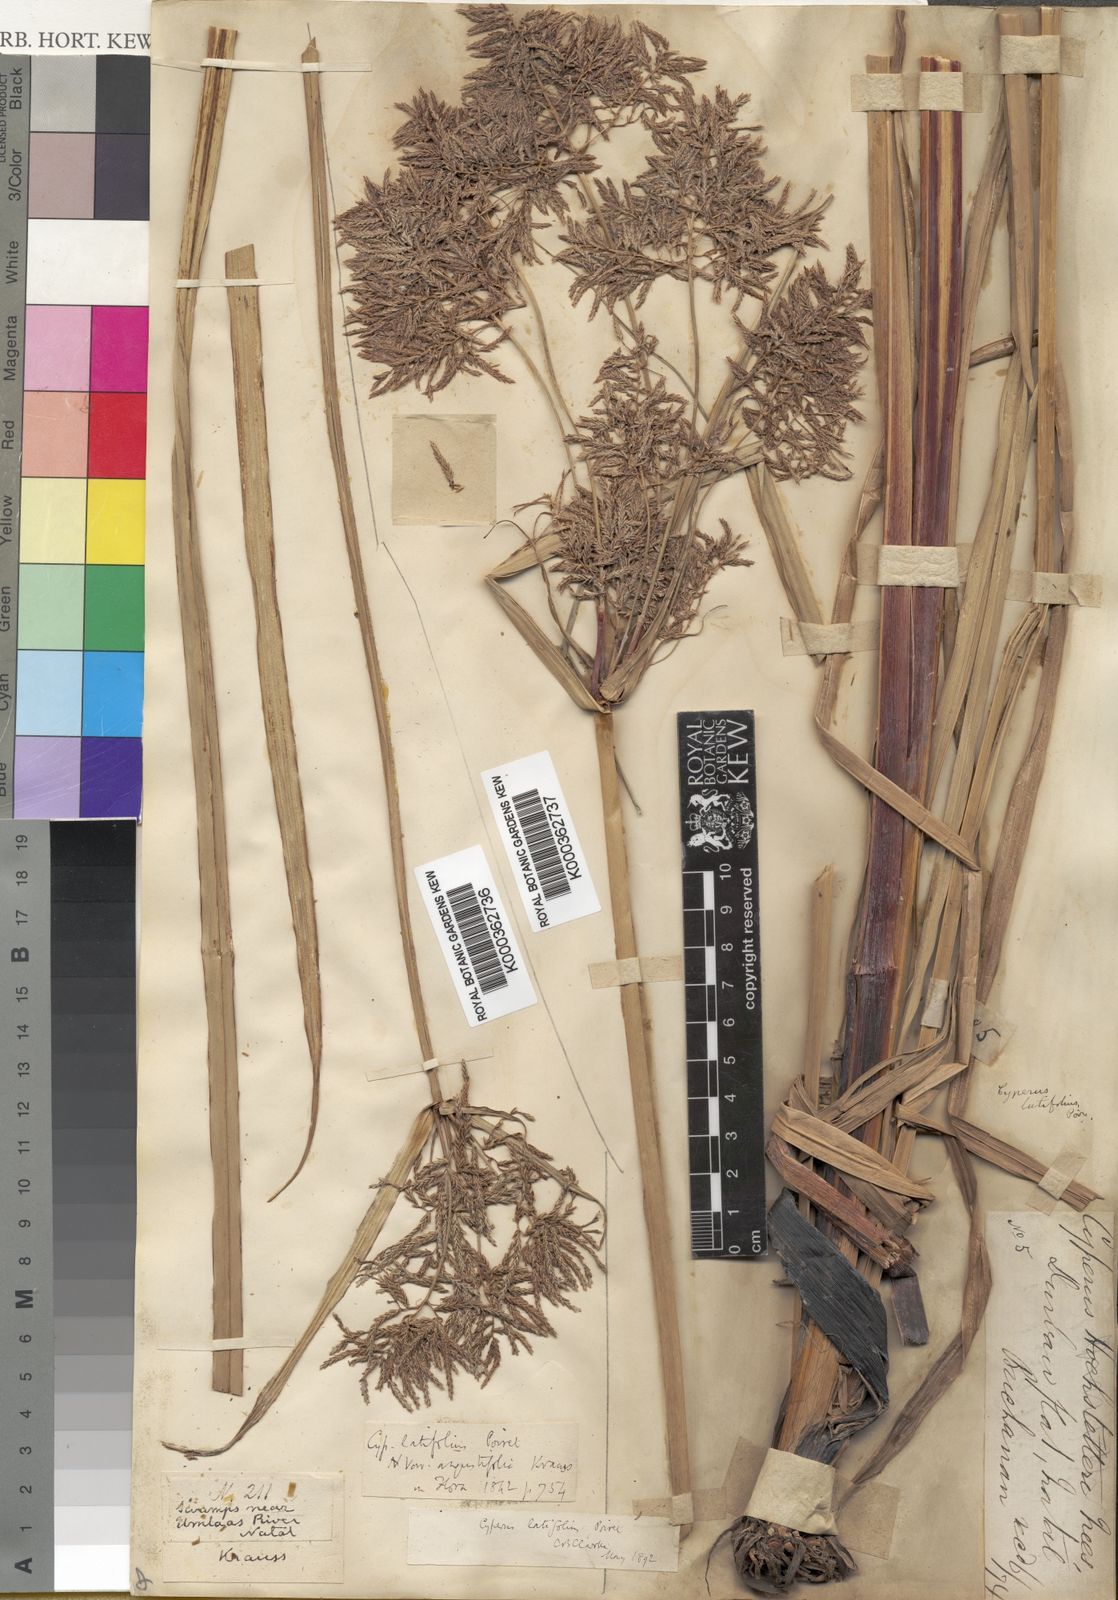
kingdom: Plantae
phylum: Tracheophyta
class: Liliopsida
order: Poales
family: Cyperaceae
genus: Cyperus
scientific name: Cyperus latifolius
